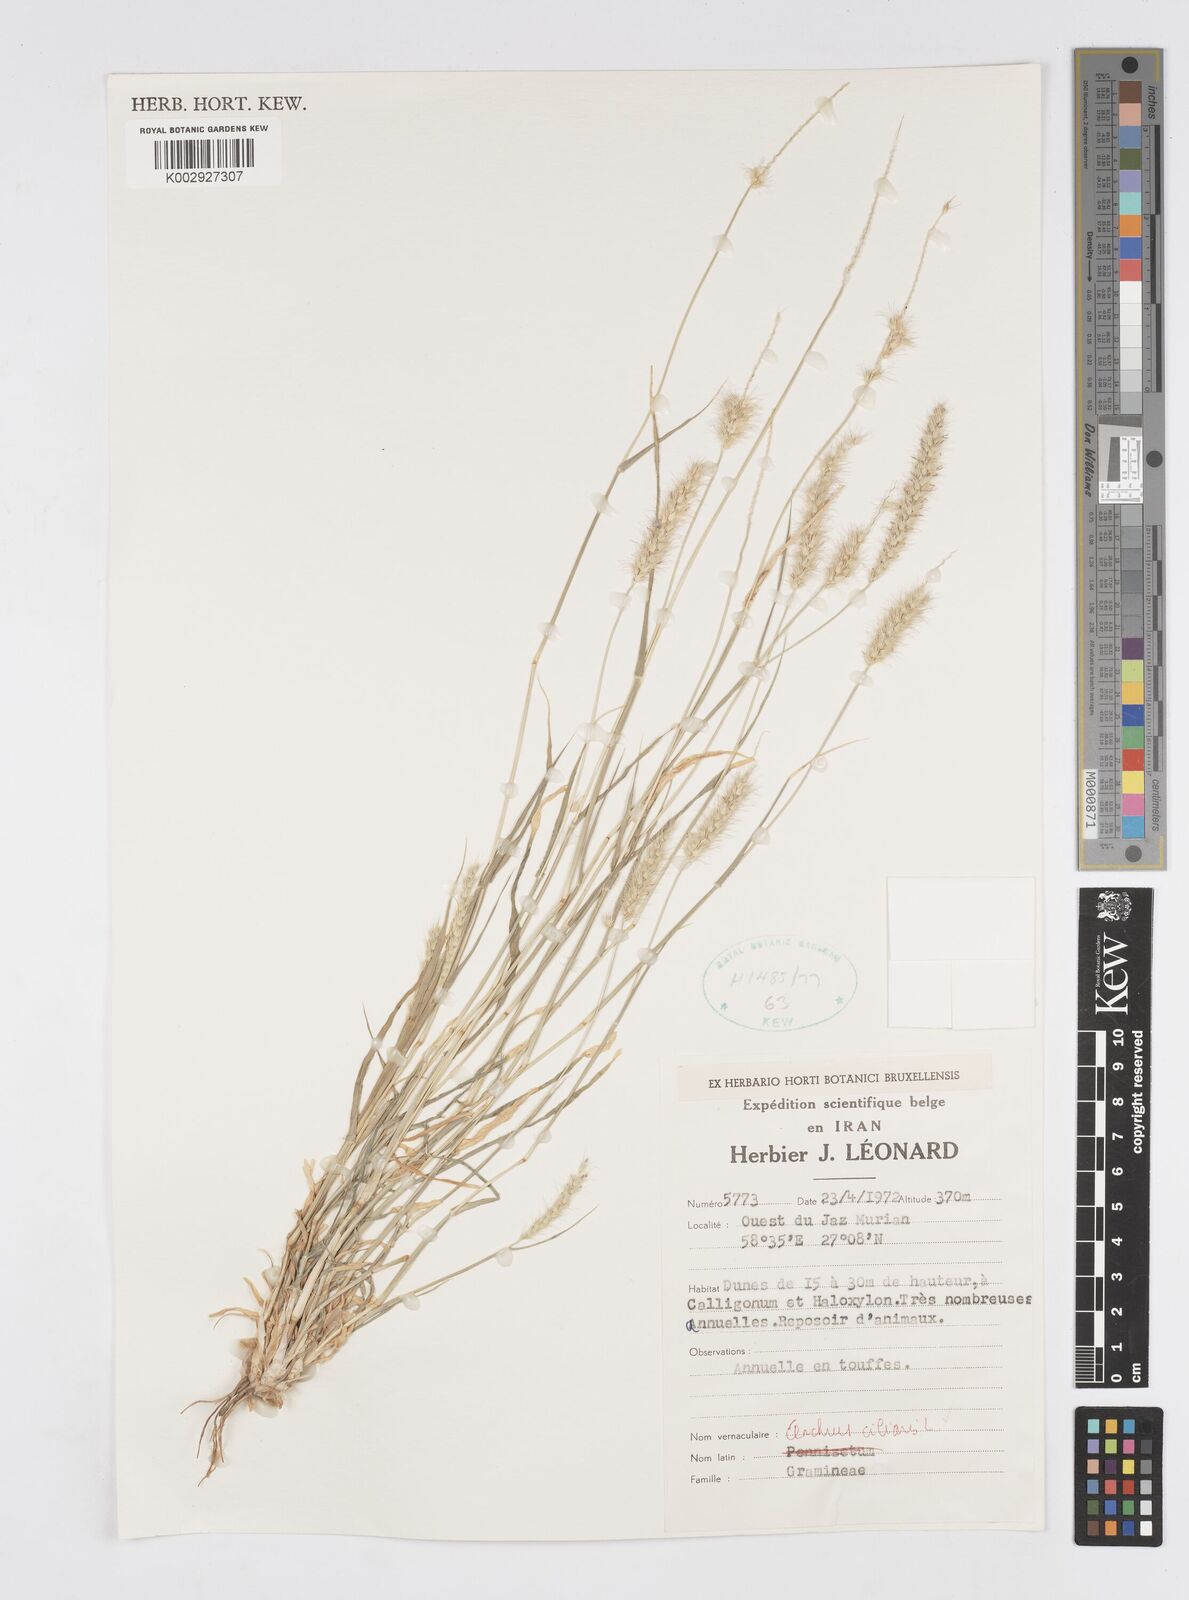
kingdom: Plantae
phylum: Tracheophyta
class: Liliopsida
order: Poales
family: Poaceae
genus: Cenchrus
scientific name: Cenchrus ciliaris
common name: Buffelgrass
